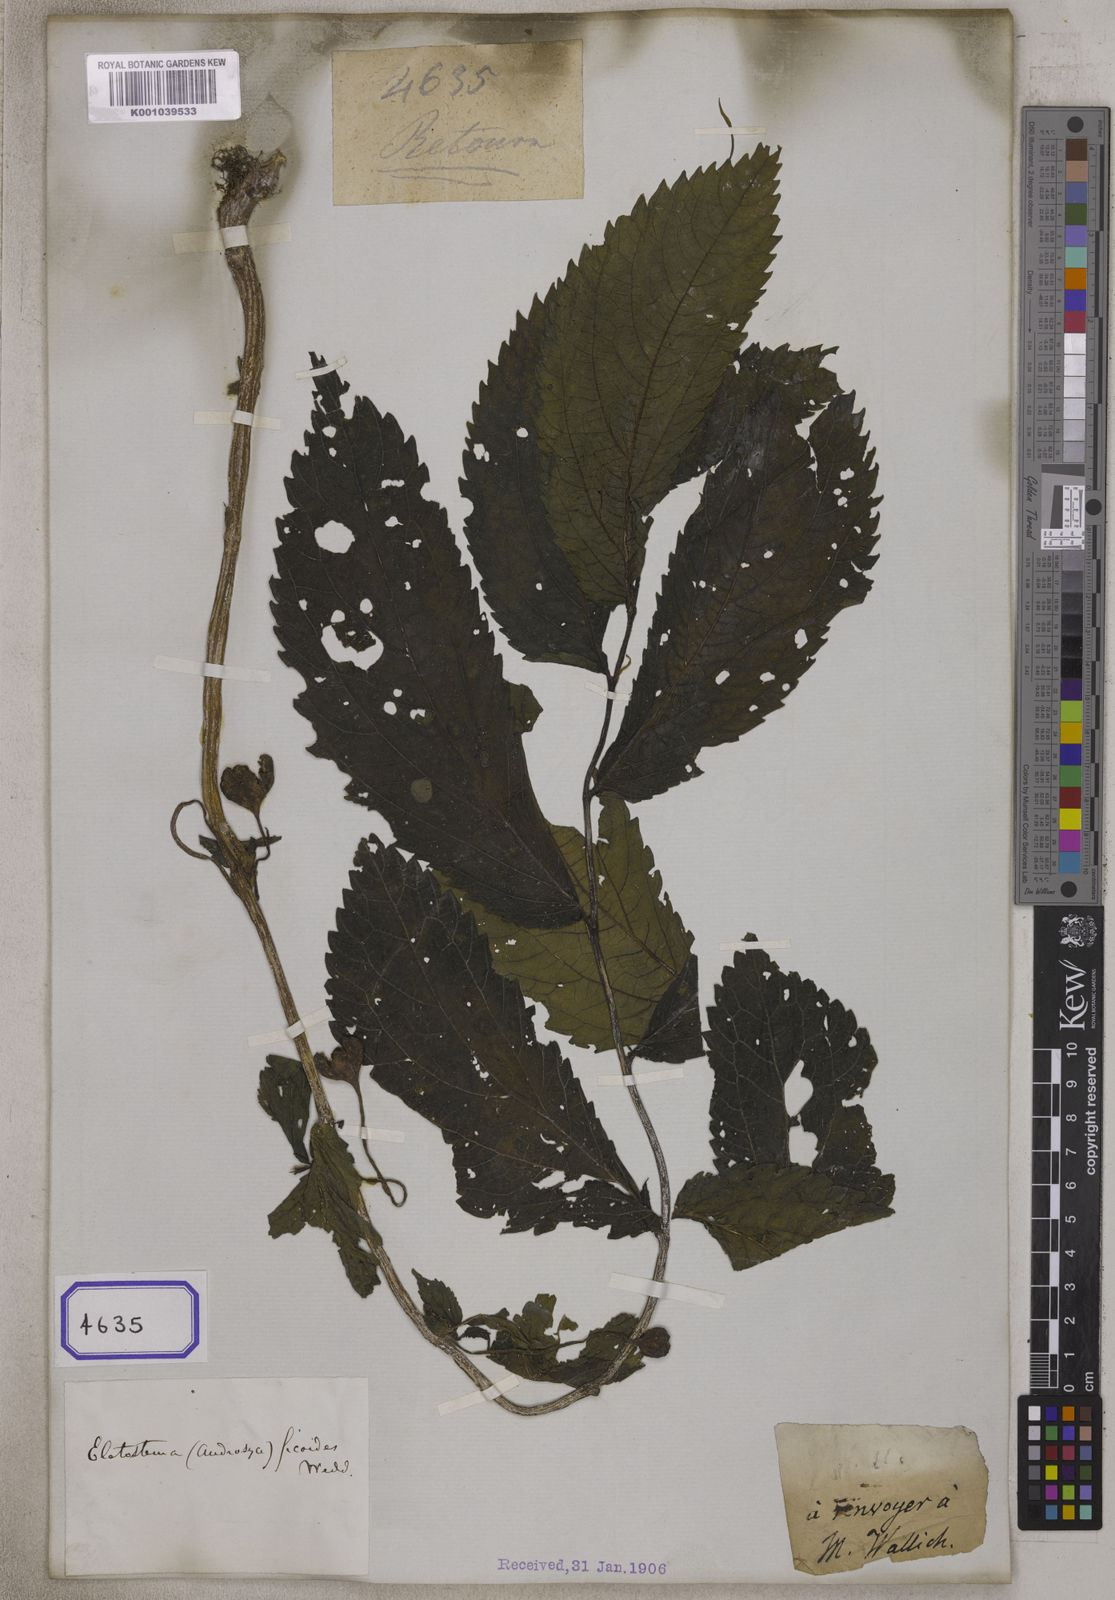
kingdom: Plantae
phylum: Tracheophyta
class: Magnoliopsida
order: Rosales
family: Urticaceae
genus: Elatostema
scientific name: Elatostema ficoides
